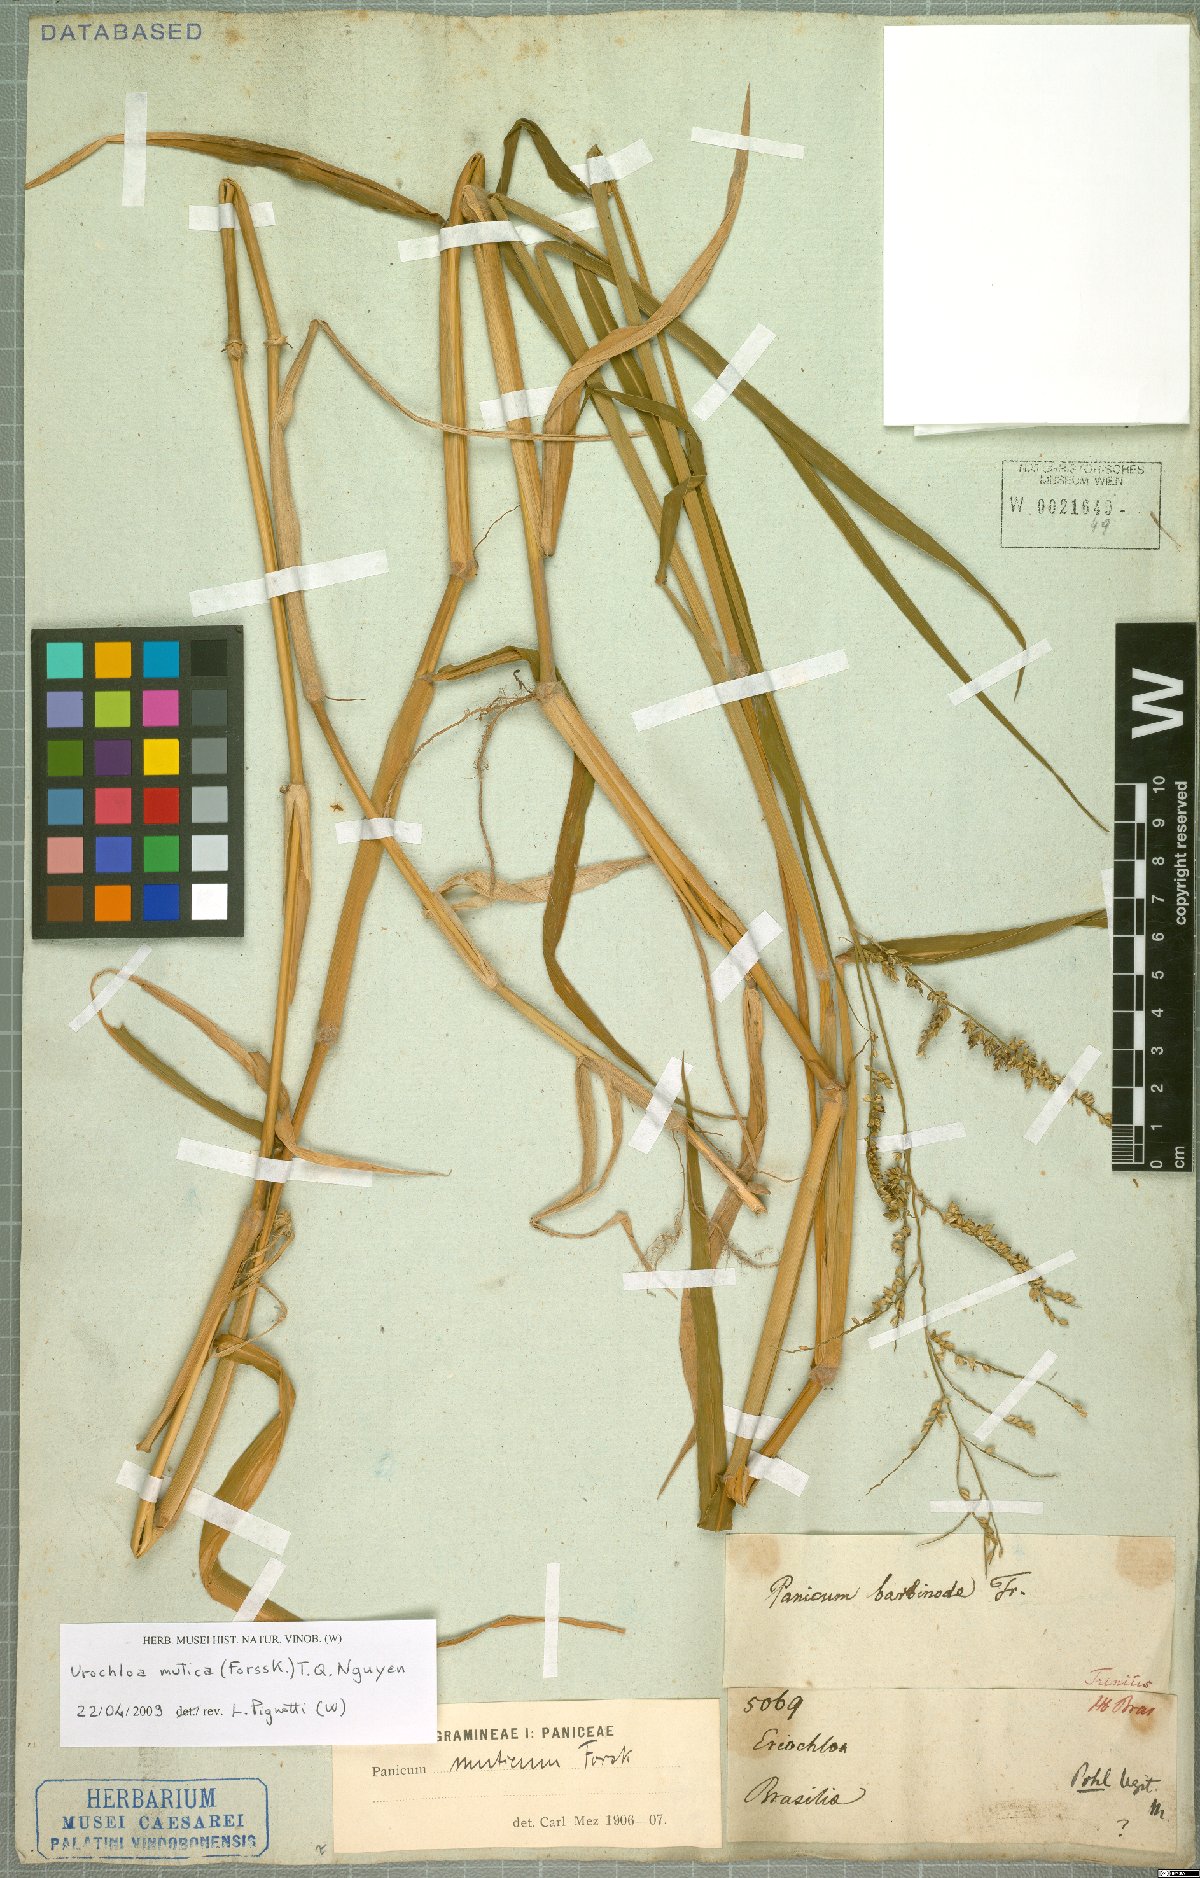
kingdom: Plantae
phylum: Tracheophyta
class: Liliopsida
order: Poales
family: Poaceae
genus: Urochloa
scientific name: Urochloa mutica
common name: Para grass
